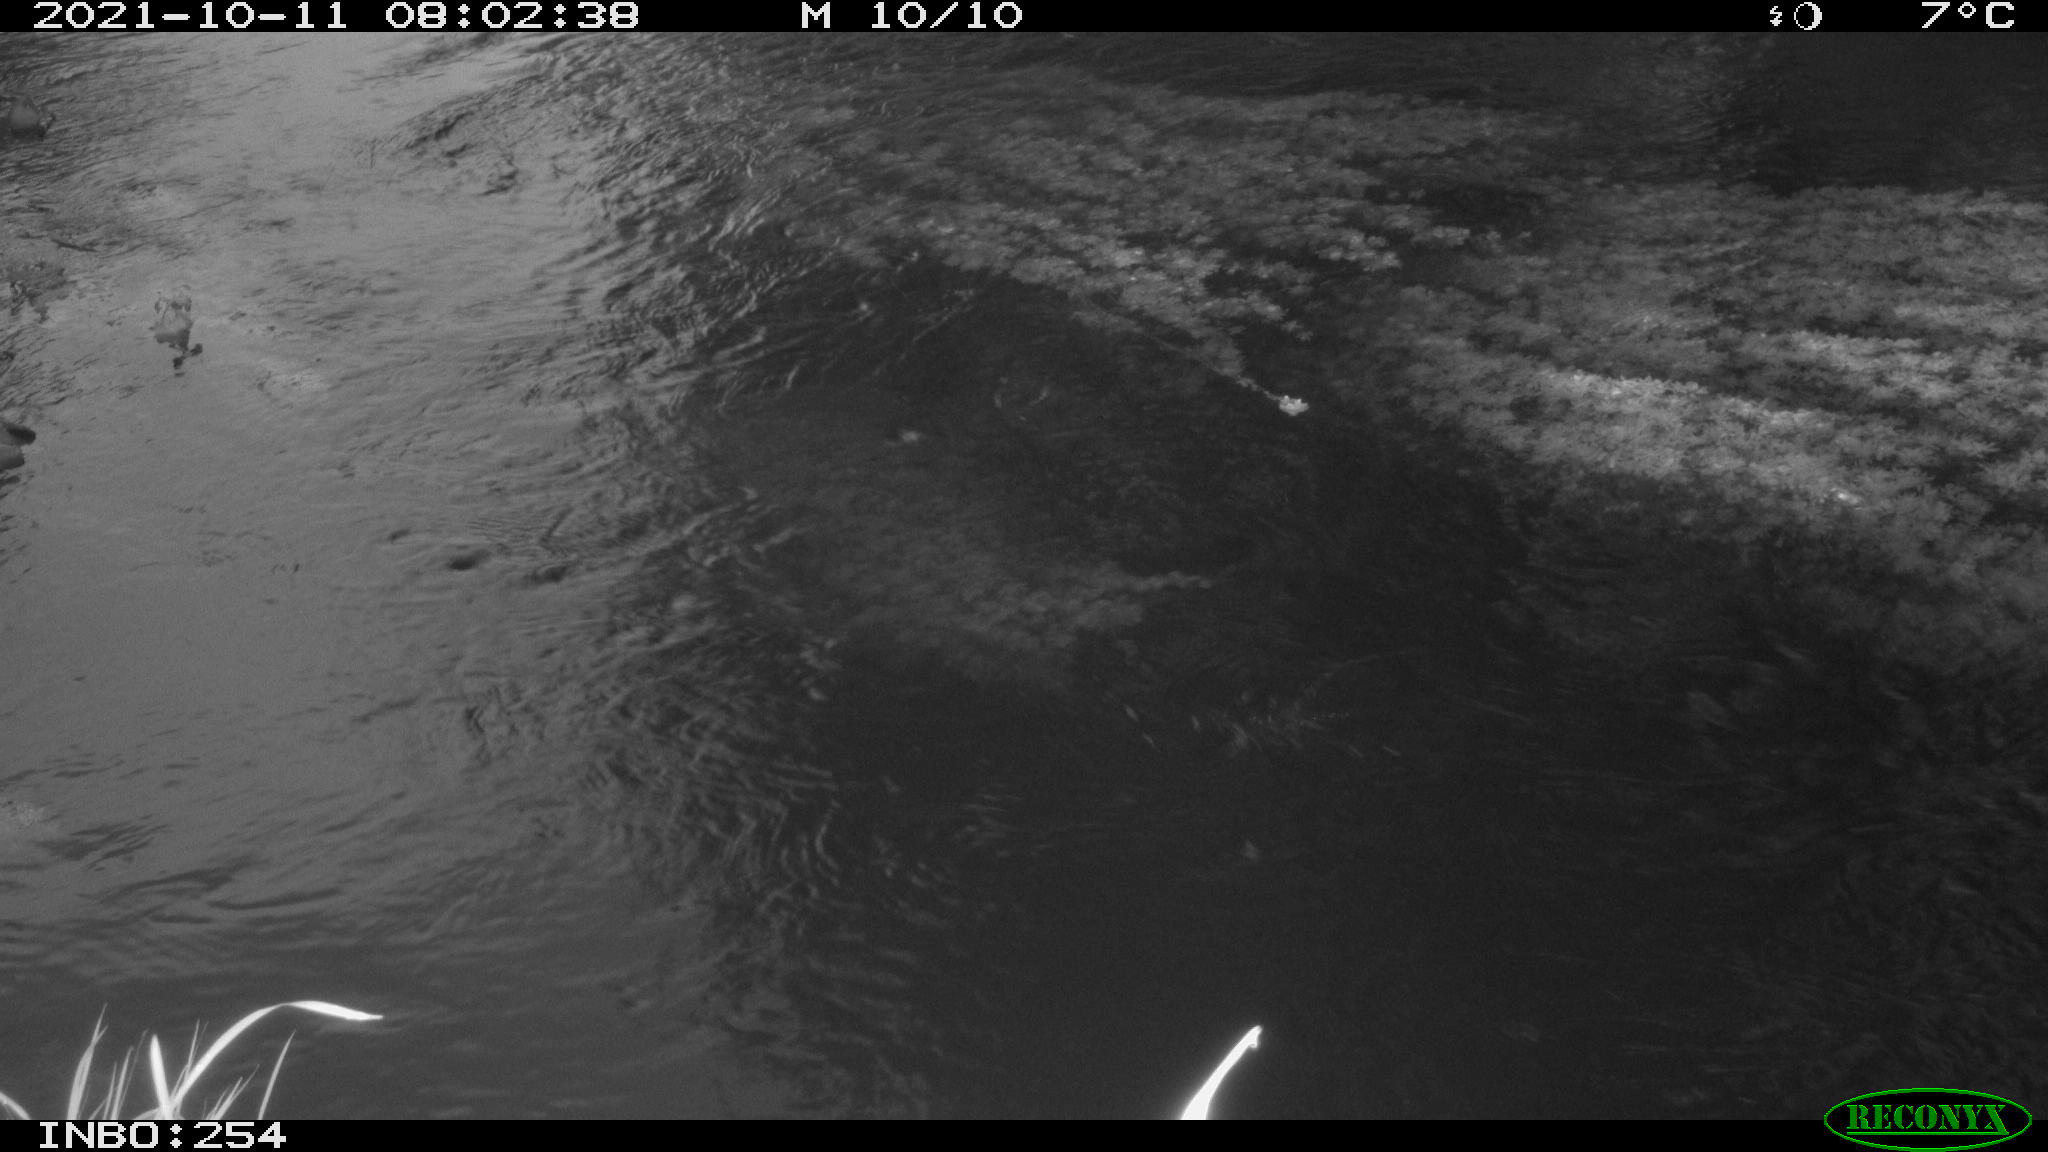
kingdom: Animalia
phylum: Chordata
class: Aves
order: Gruiformes
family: Rallidae
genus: Gallinula
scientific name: Gallinula chloropus
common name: Common moorhen
